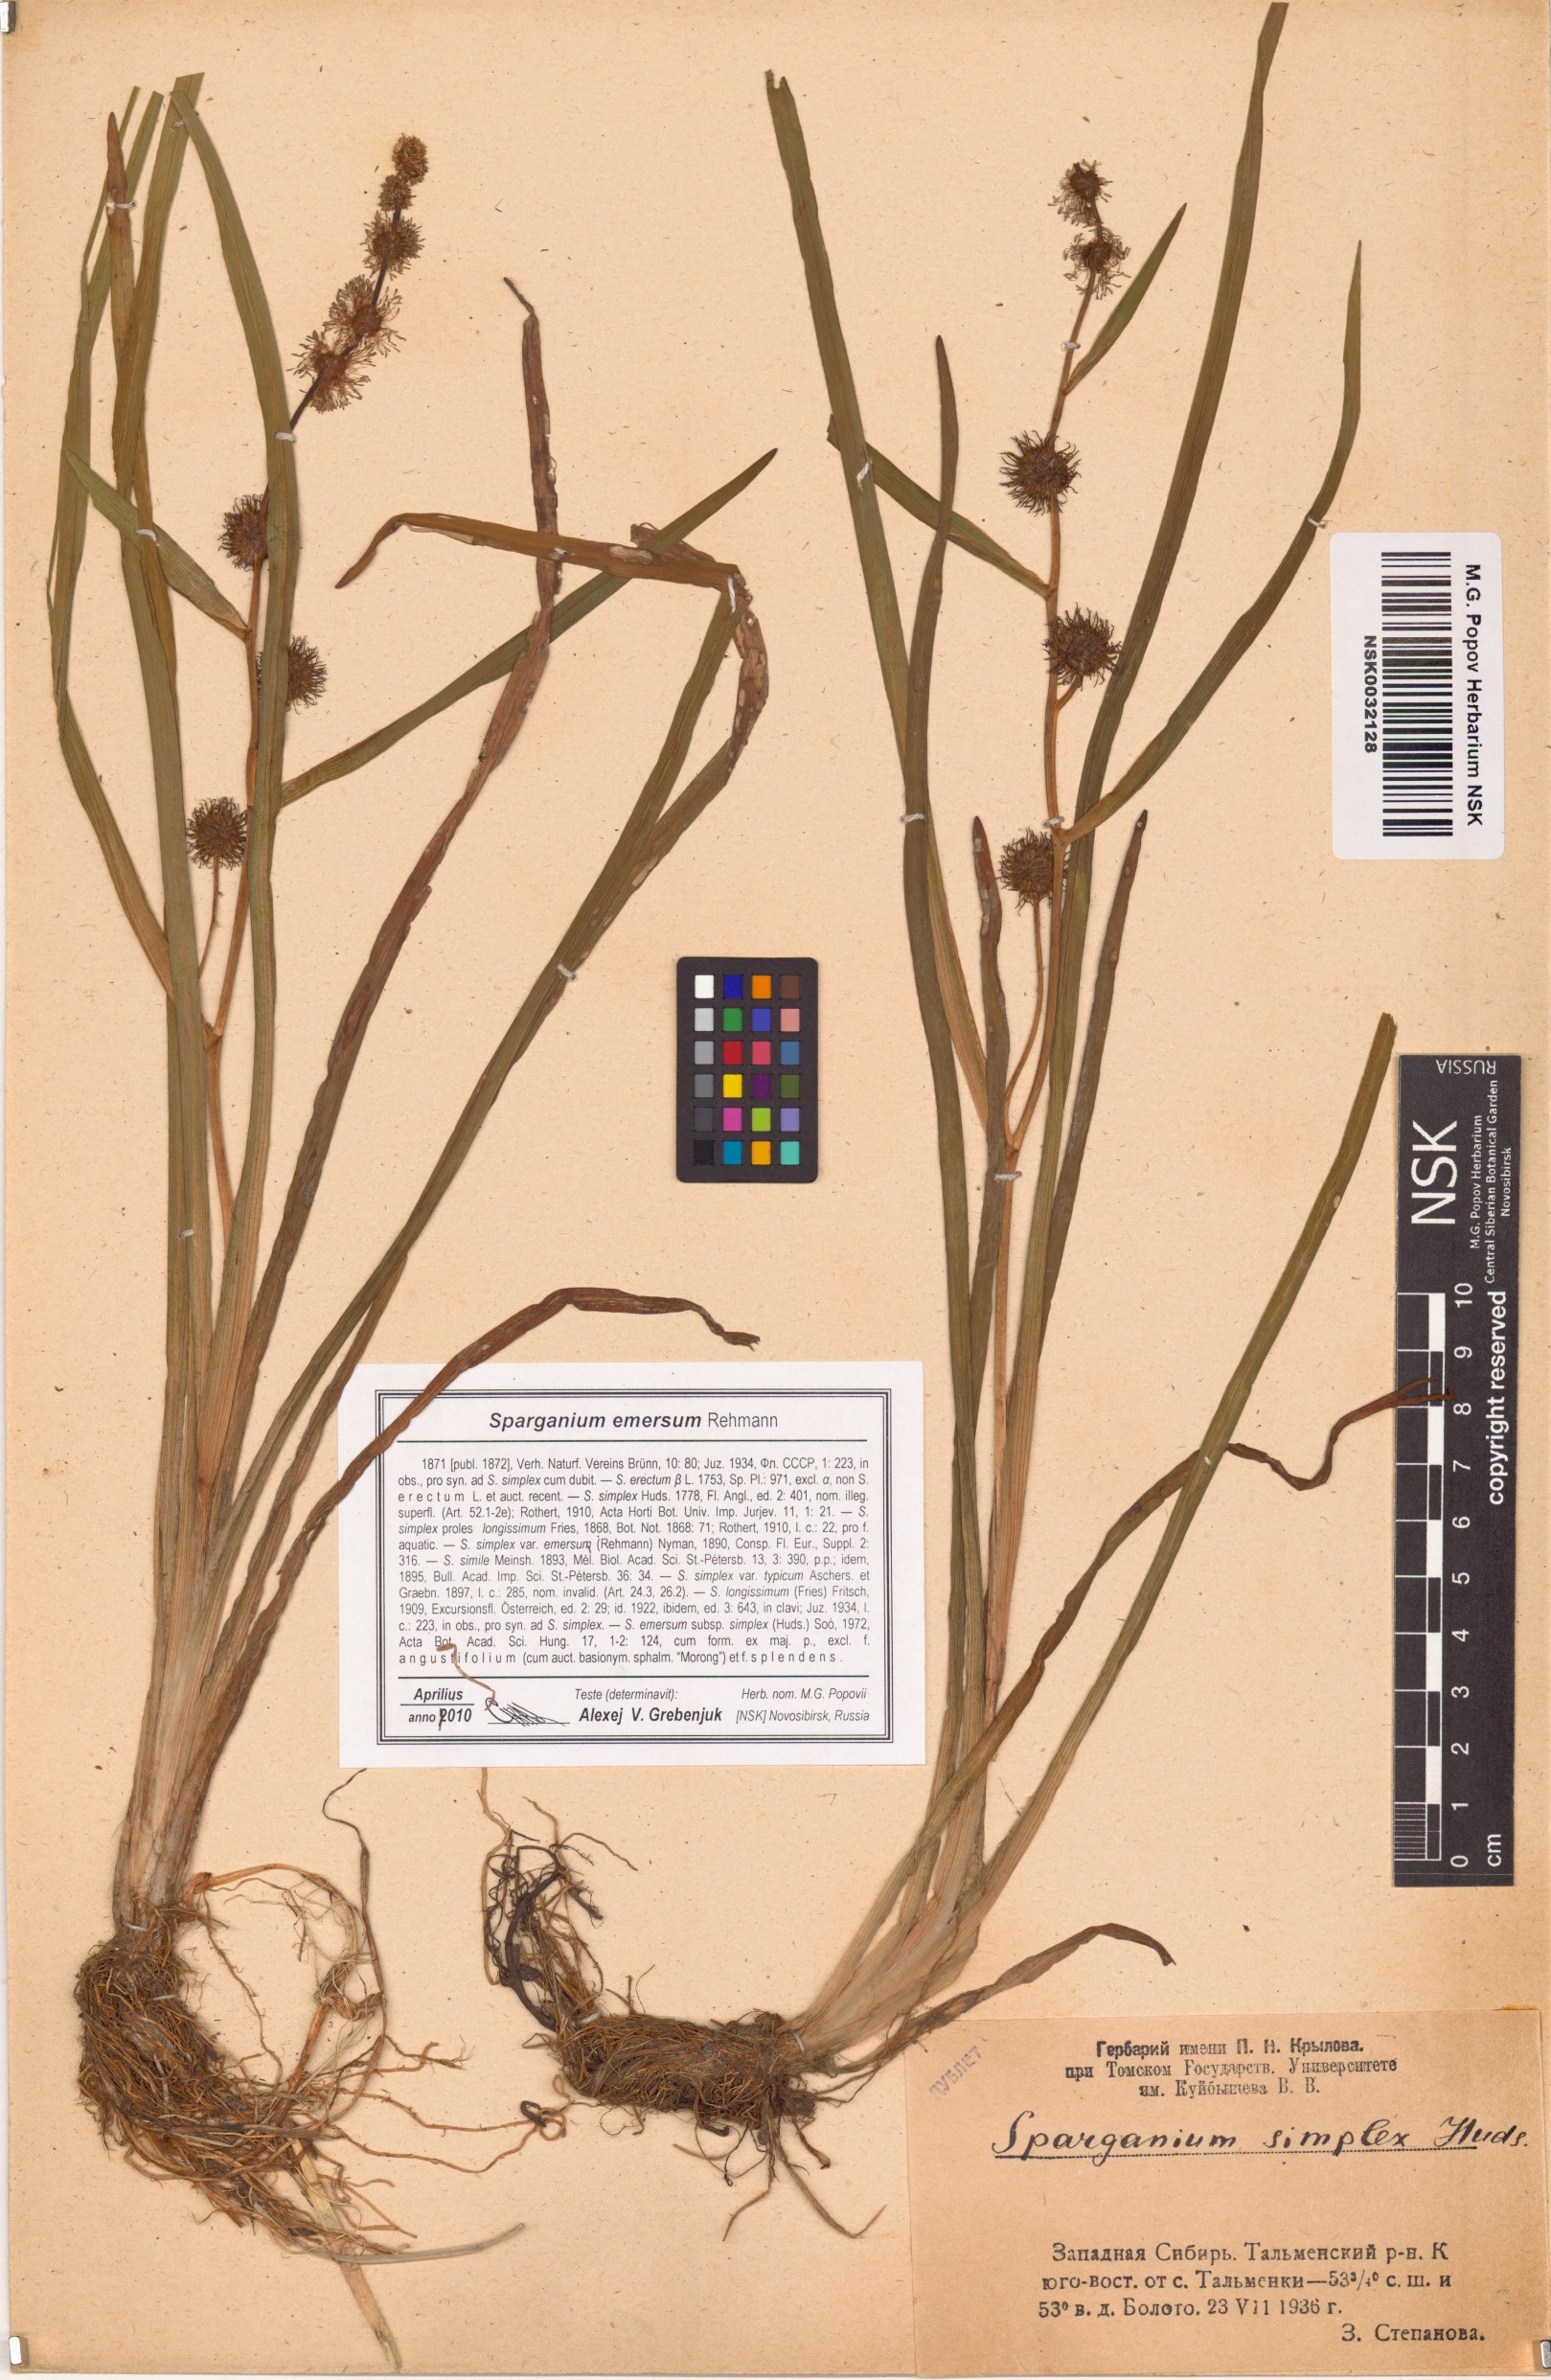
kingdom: Plantae
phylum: Tracheophyta
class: Liliopsida
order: Poales
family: Typhaceae
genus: Sparganium
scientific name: Sparganium emersum
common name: Unbranched bur-reed
